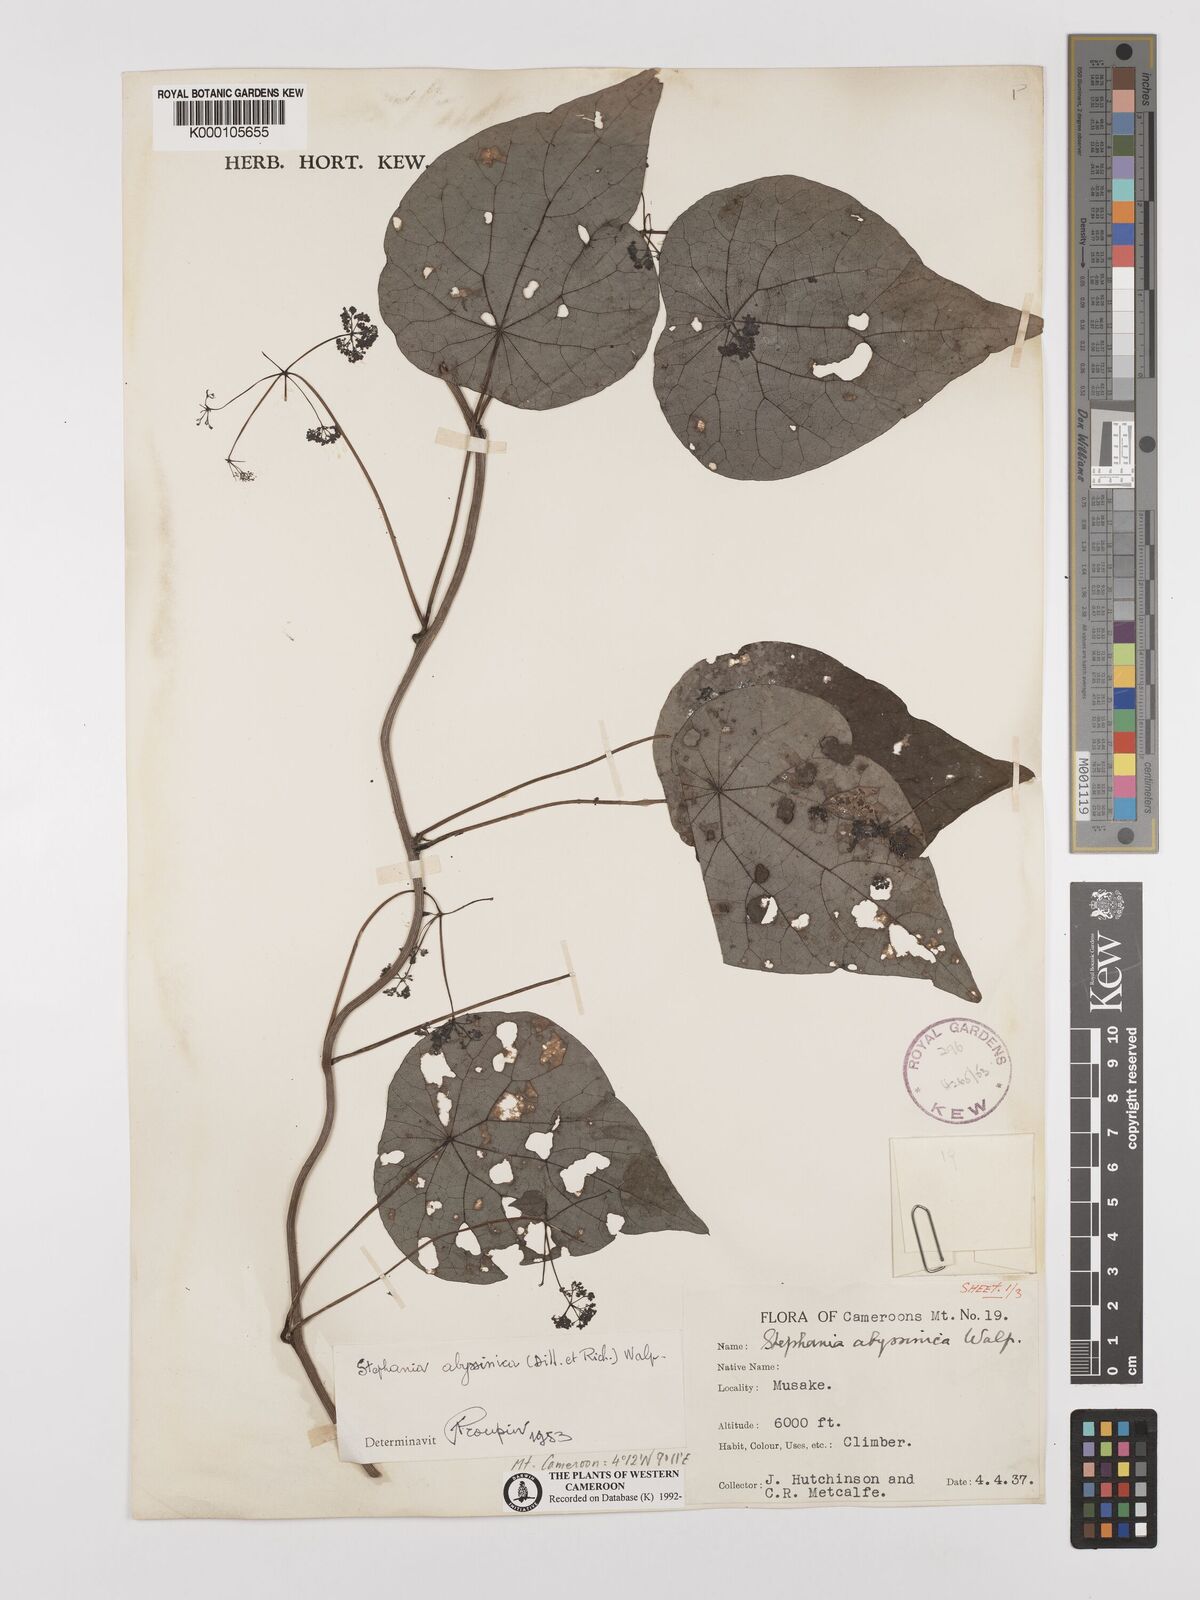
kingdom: Plantae
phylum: Tracheophyta
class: Magnoliopsida
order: Ranunculales
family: Menispermaceae
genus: Stephania
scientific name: Stephania abyssinica
